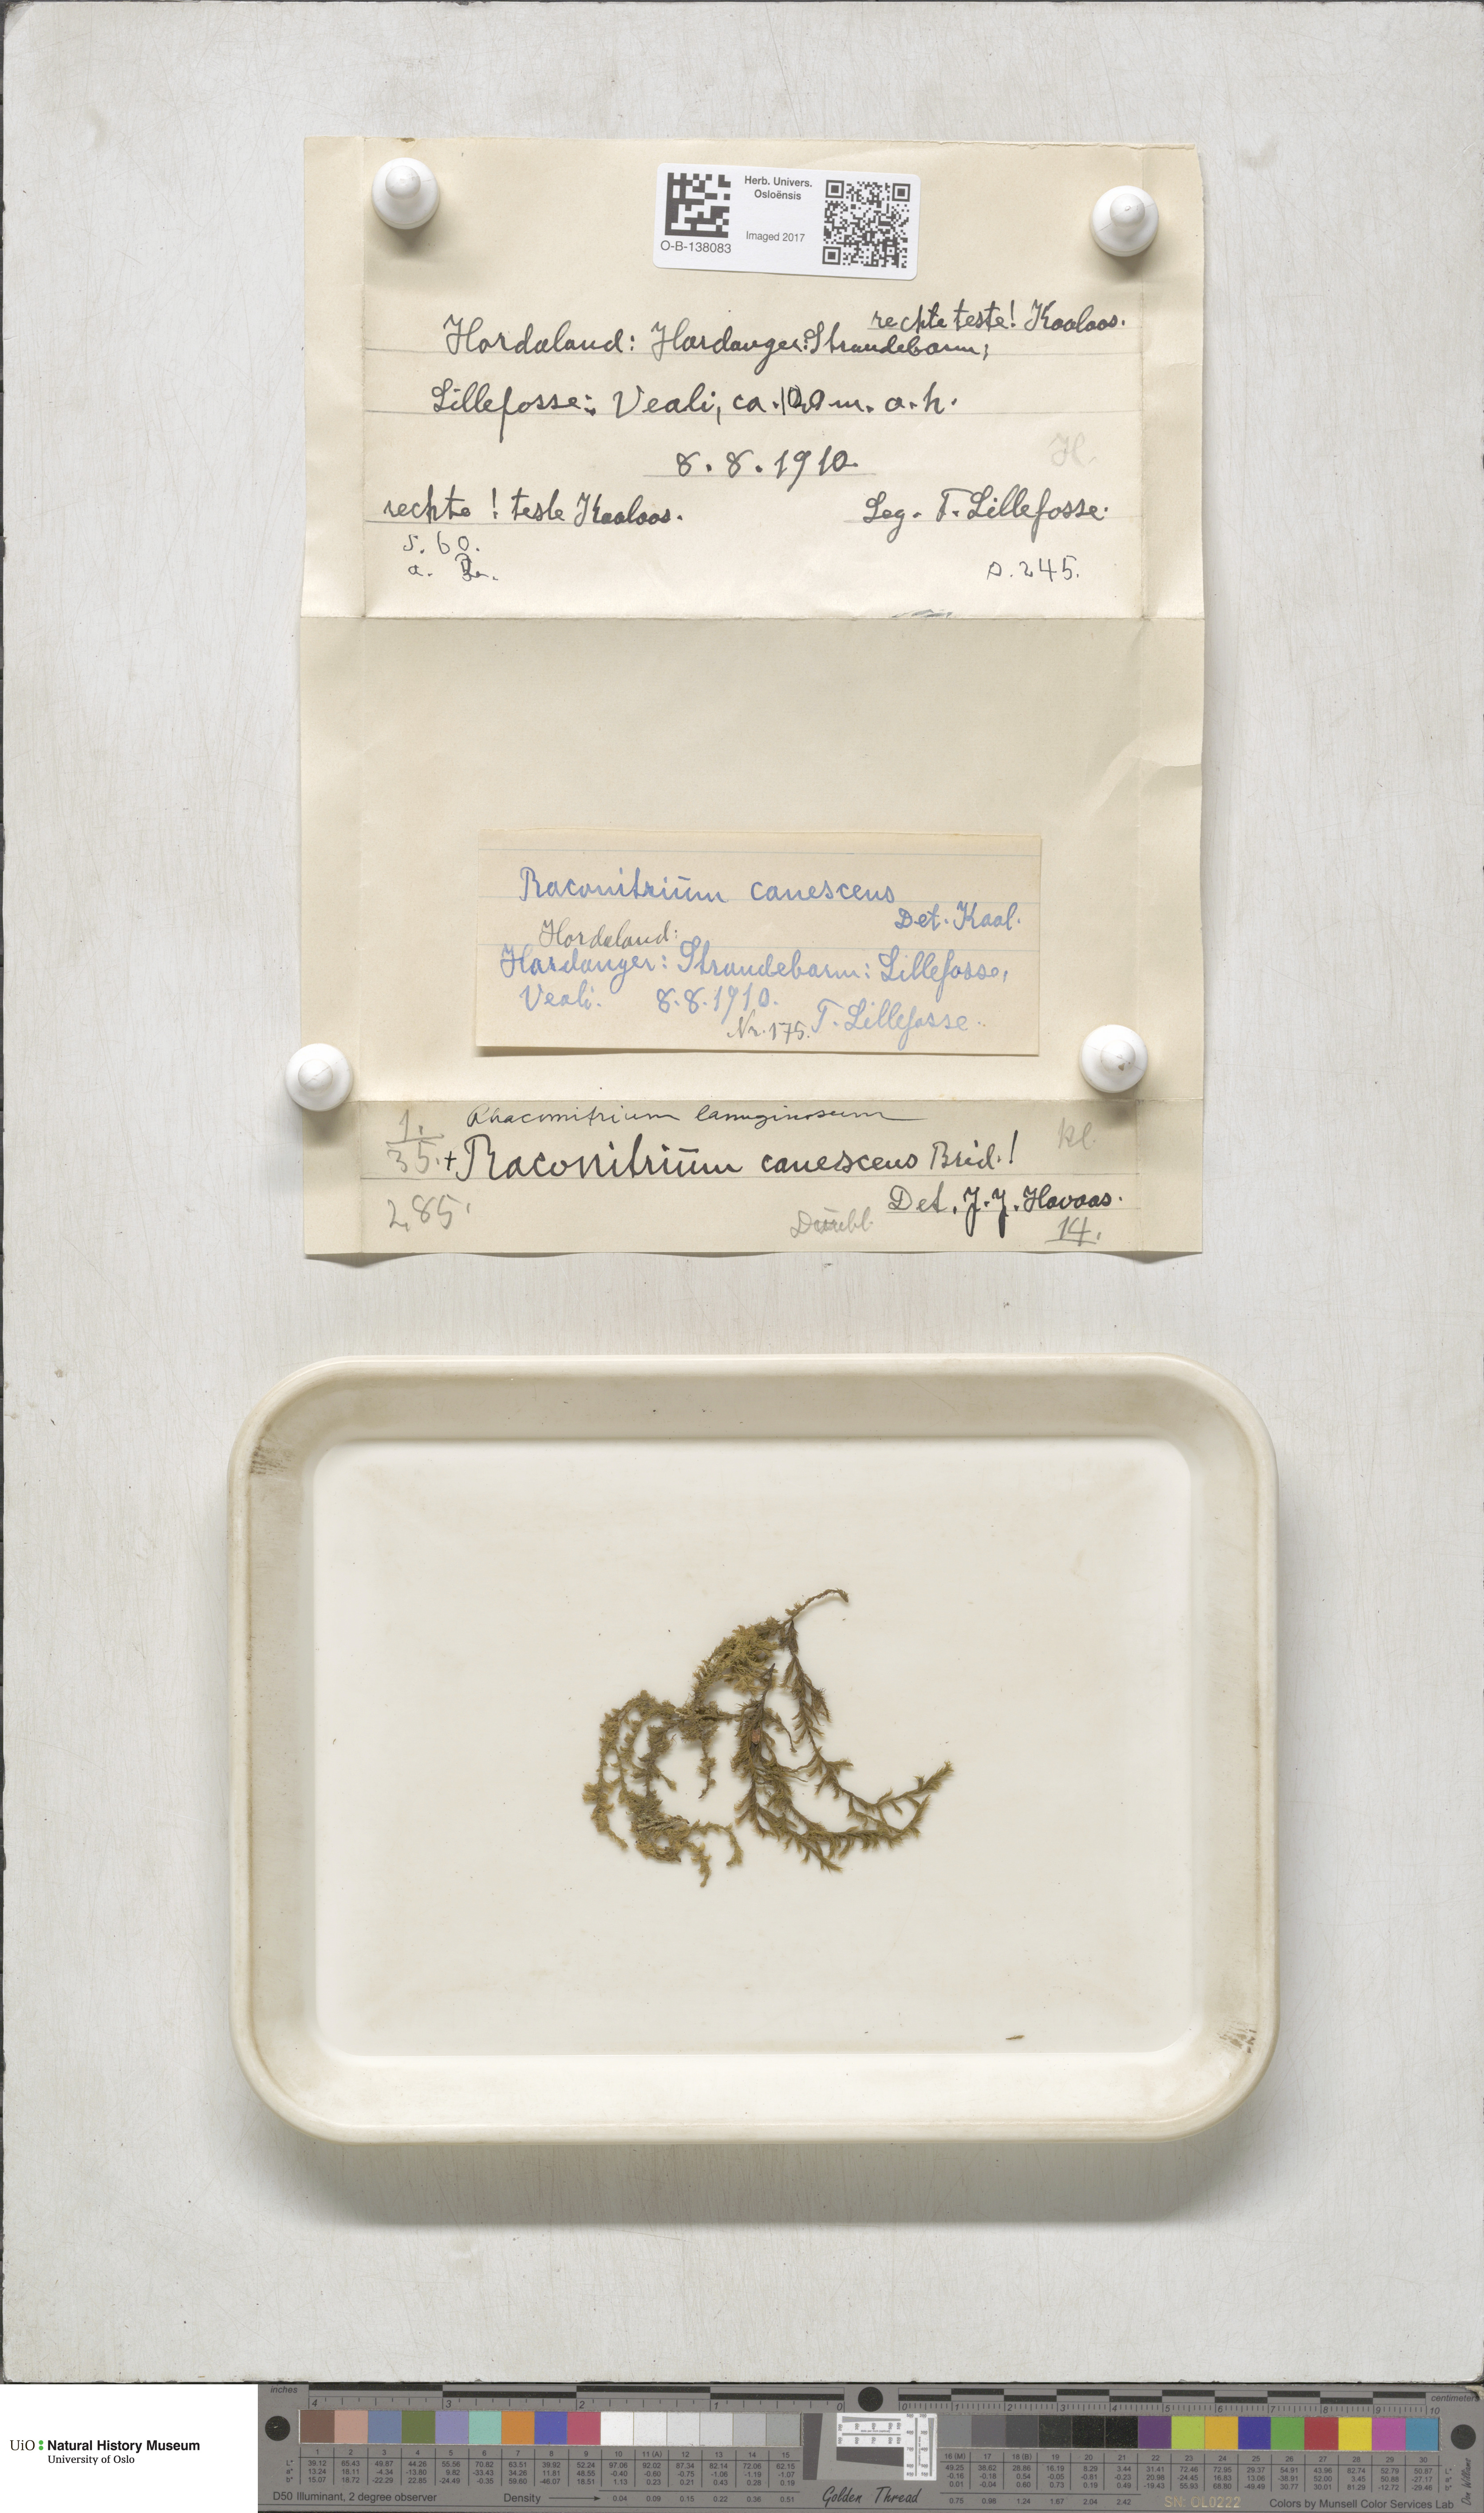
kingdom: Plantae
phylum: Bryophyta
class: Bryopsida
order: Grimmiales
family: Grimmiaceae
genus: Racomitrium
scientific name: Racomitrium lanuginosum
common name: Hoary rock moss
